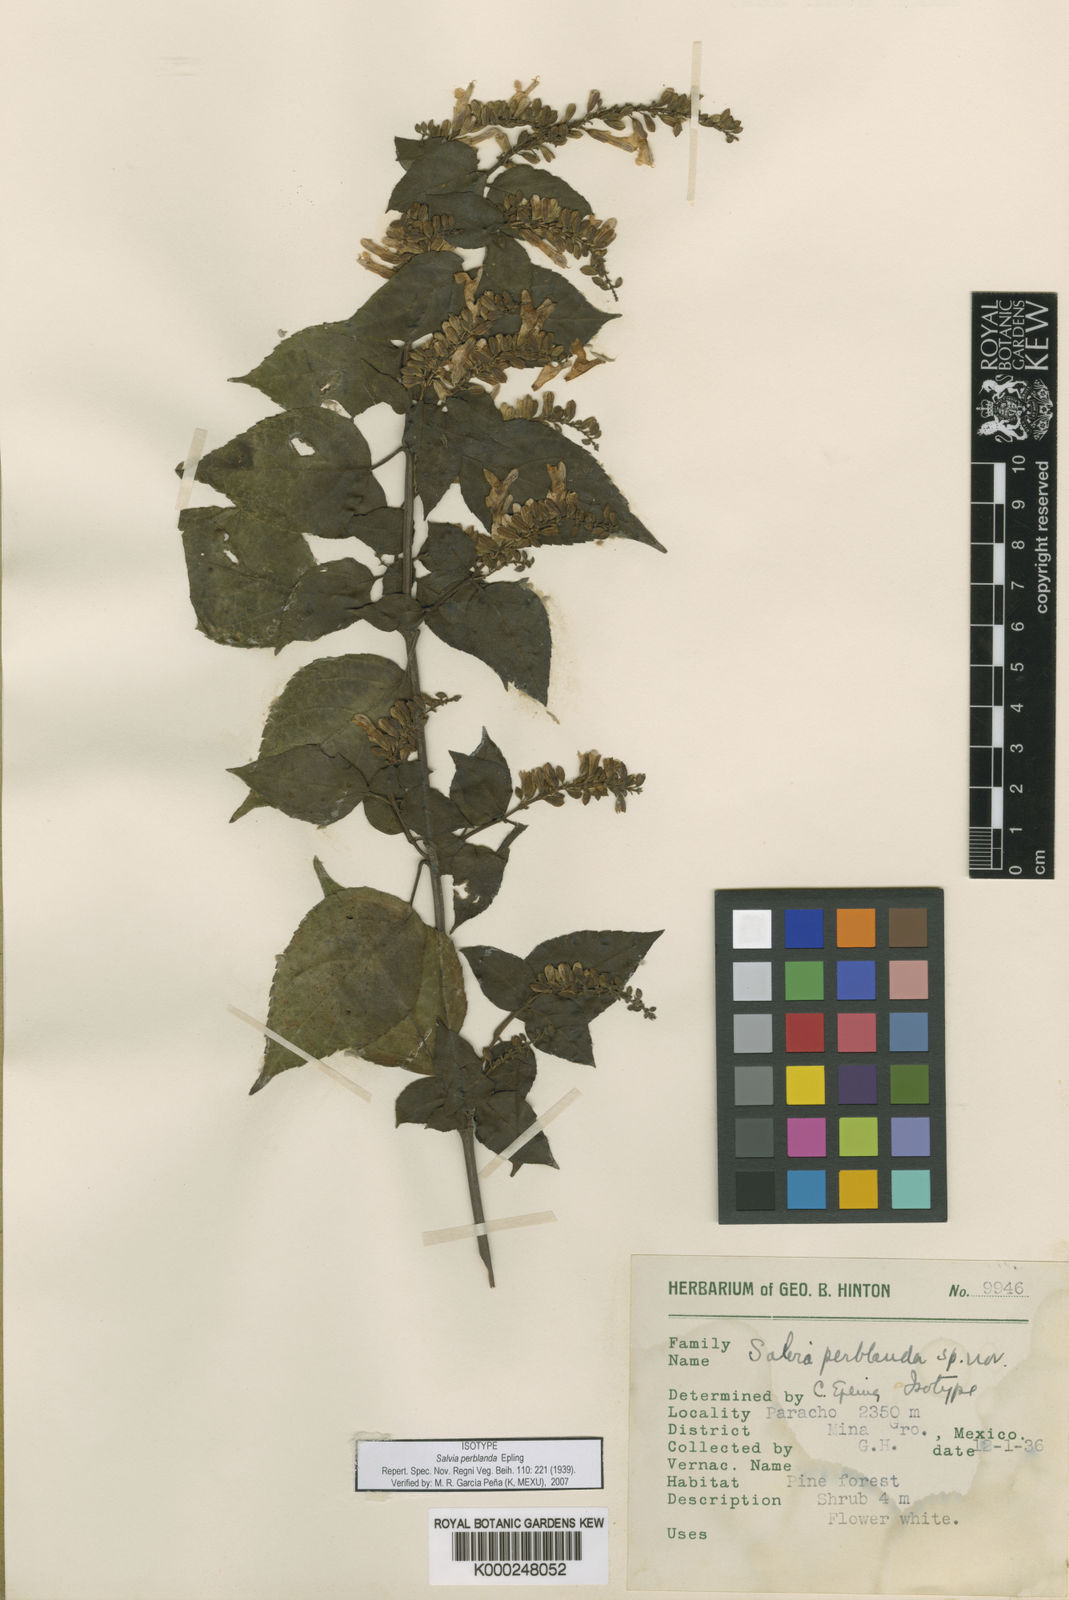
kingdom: Plantae
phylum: Tracheophyta
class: Magnoliopsida
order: Lamiales
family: Lamiaceae
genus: Salvia
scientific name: Salvia perblanda
